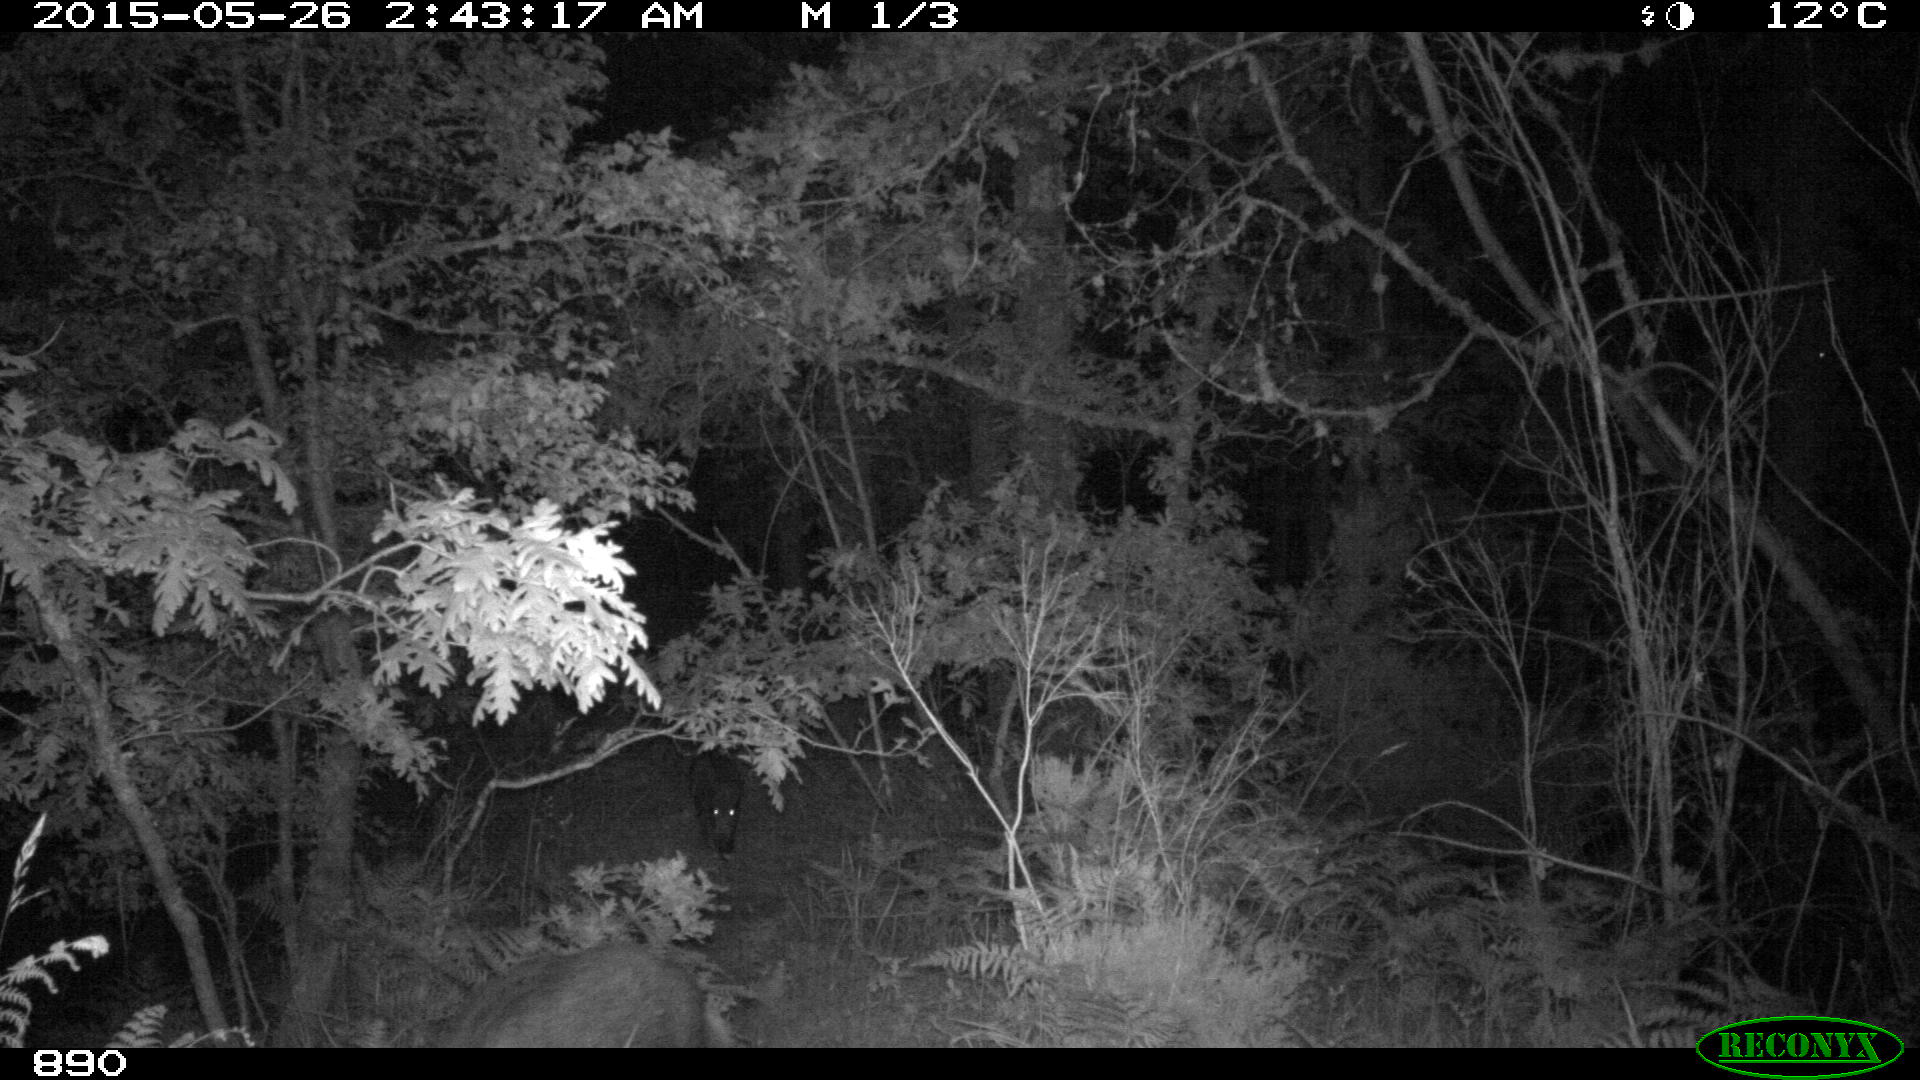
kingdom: Animalia
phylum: Chordata
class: Mammalia
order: Artiodactyla
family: Suidae
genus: Sus
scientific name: Sus scrofa
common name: Wild boar
